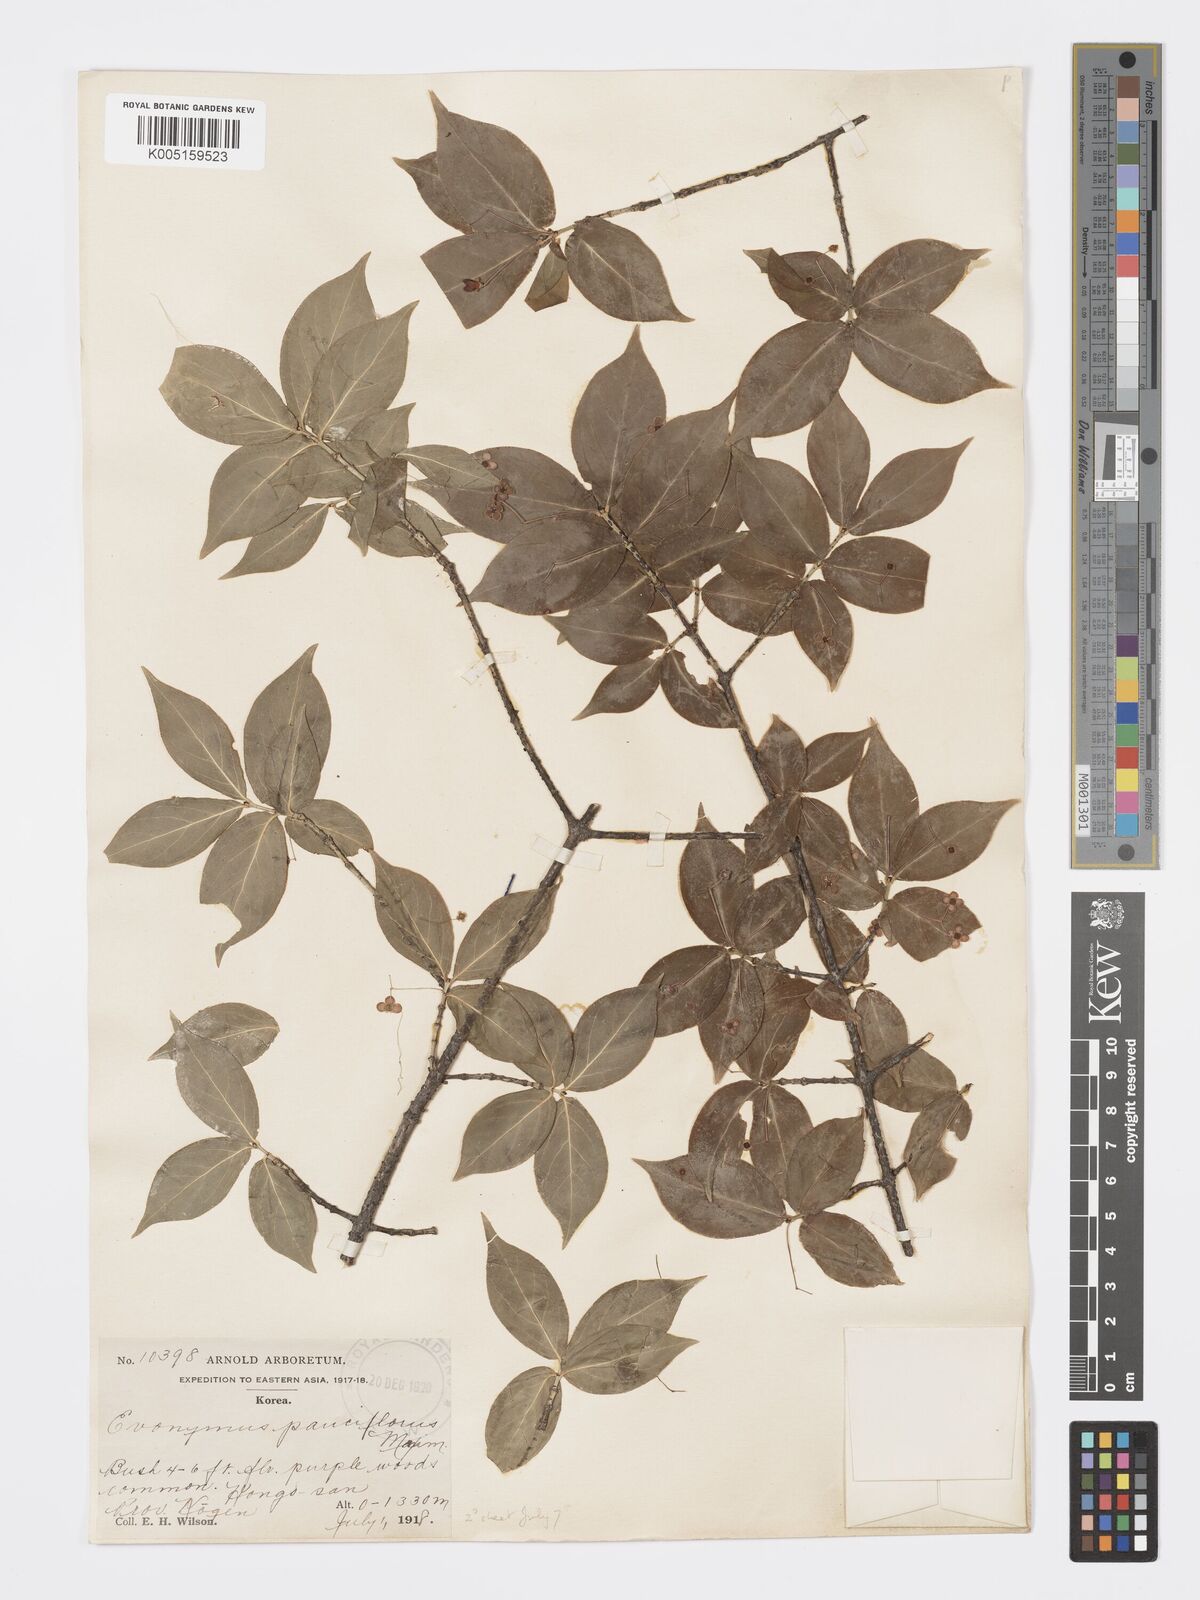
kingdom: Plantae
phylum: Tracheophyta
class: Magnoliopsida
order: Celastrales
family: Celastraceae
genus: Euonymus
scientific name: Euonymus verrucosus
